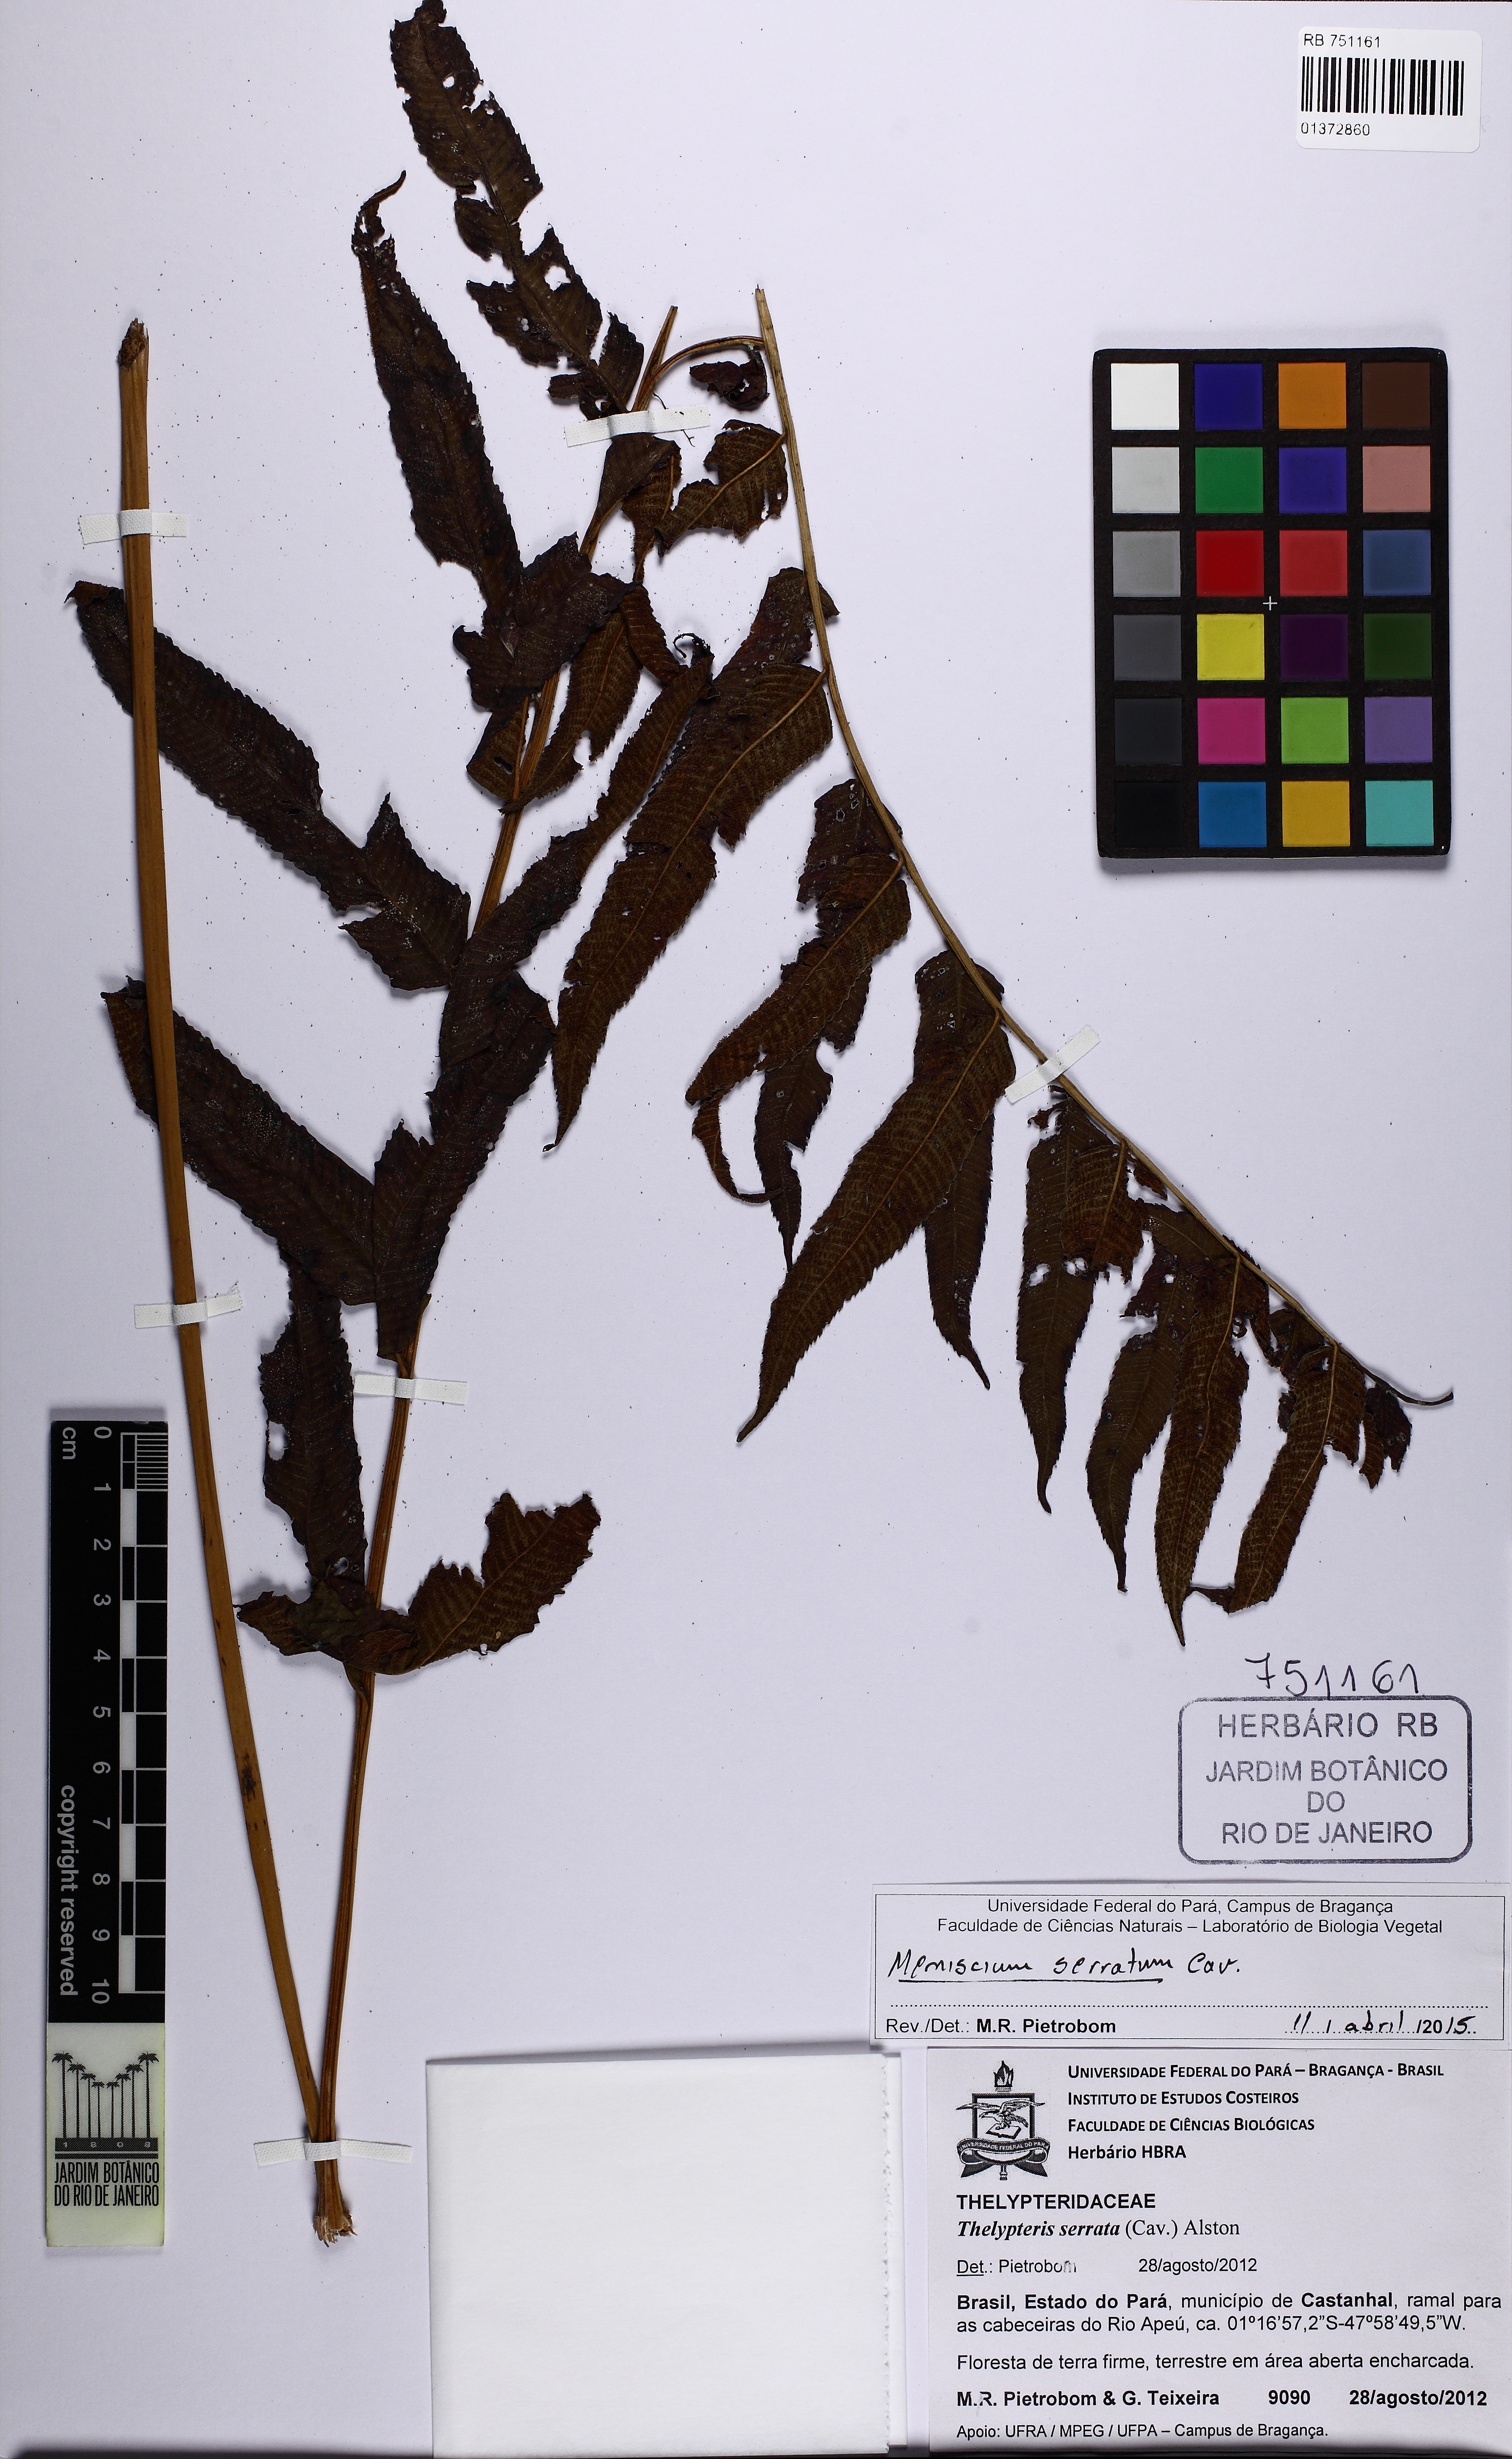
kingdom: Plantae
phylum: Tracheophyta
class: Polypodiopsida
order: Polypodiales
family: Thelypteridaceae
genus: Meniscium
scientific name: Meniscium serratum
